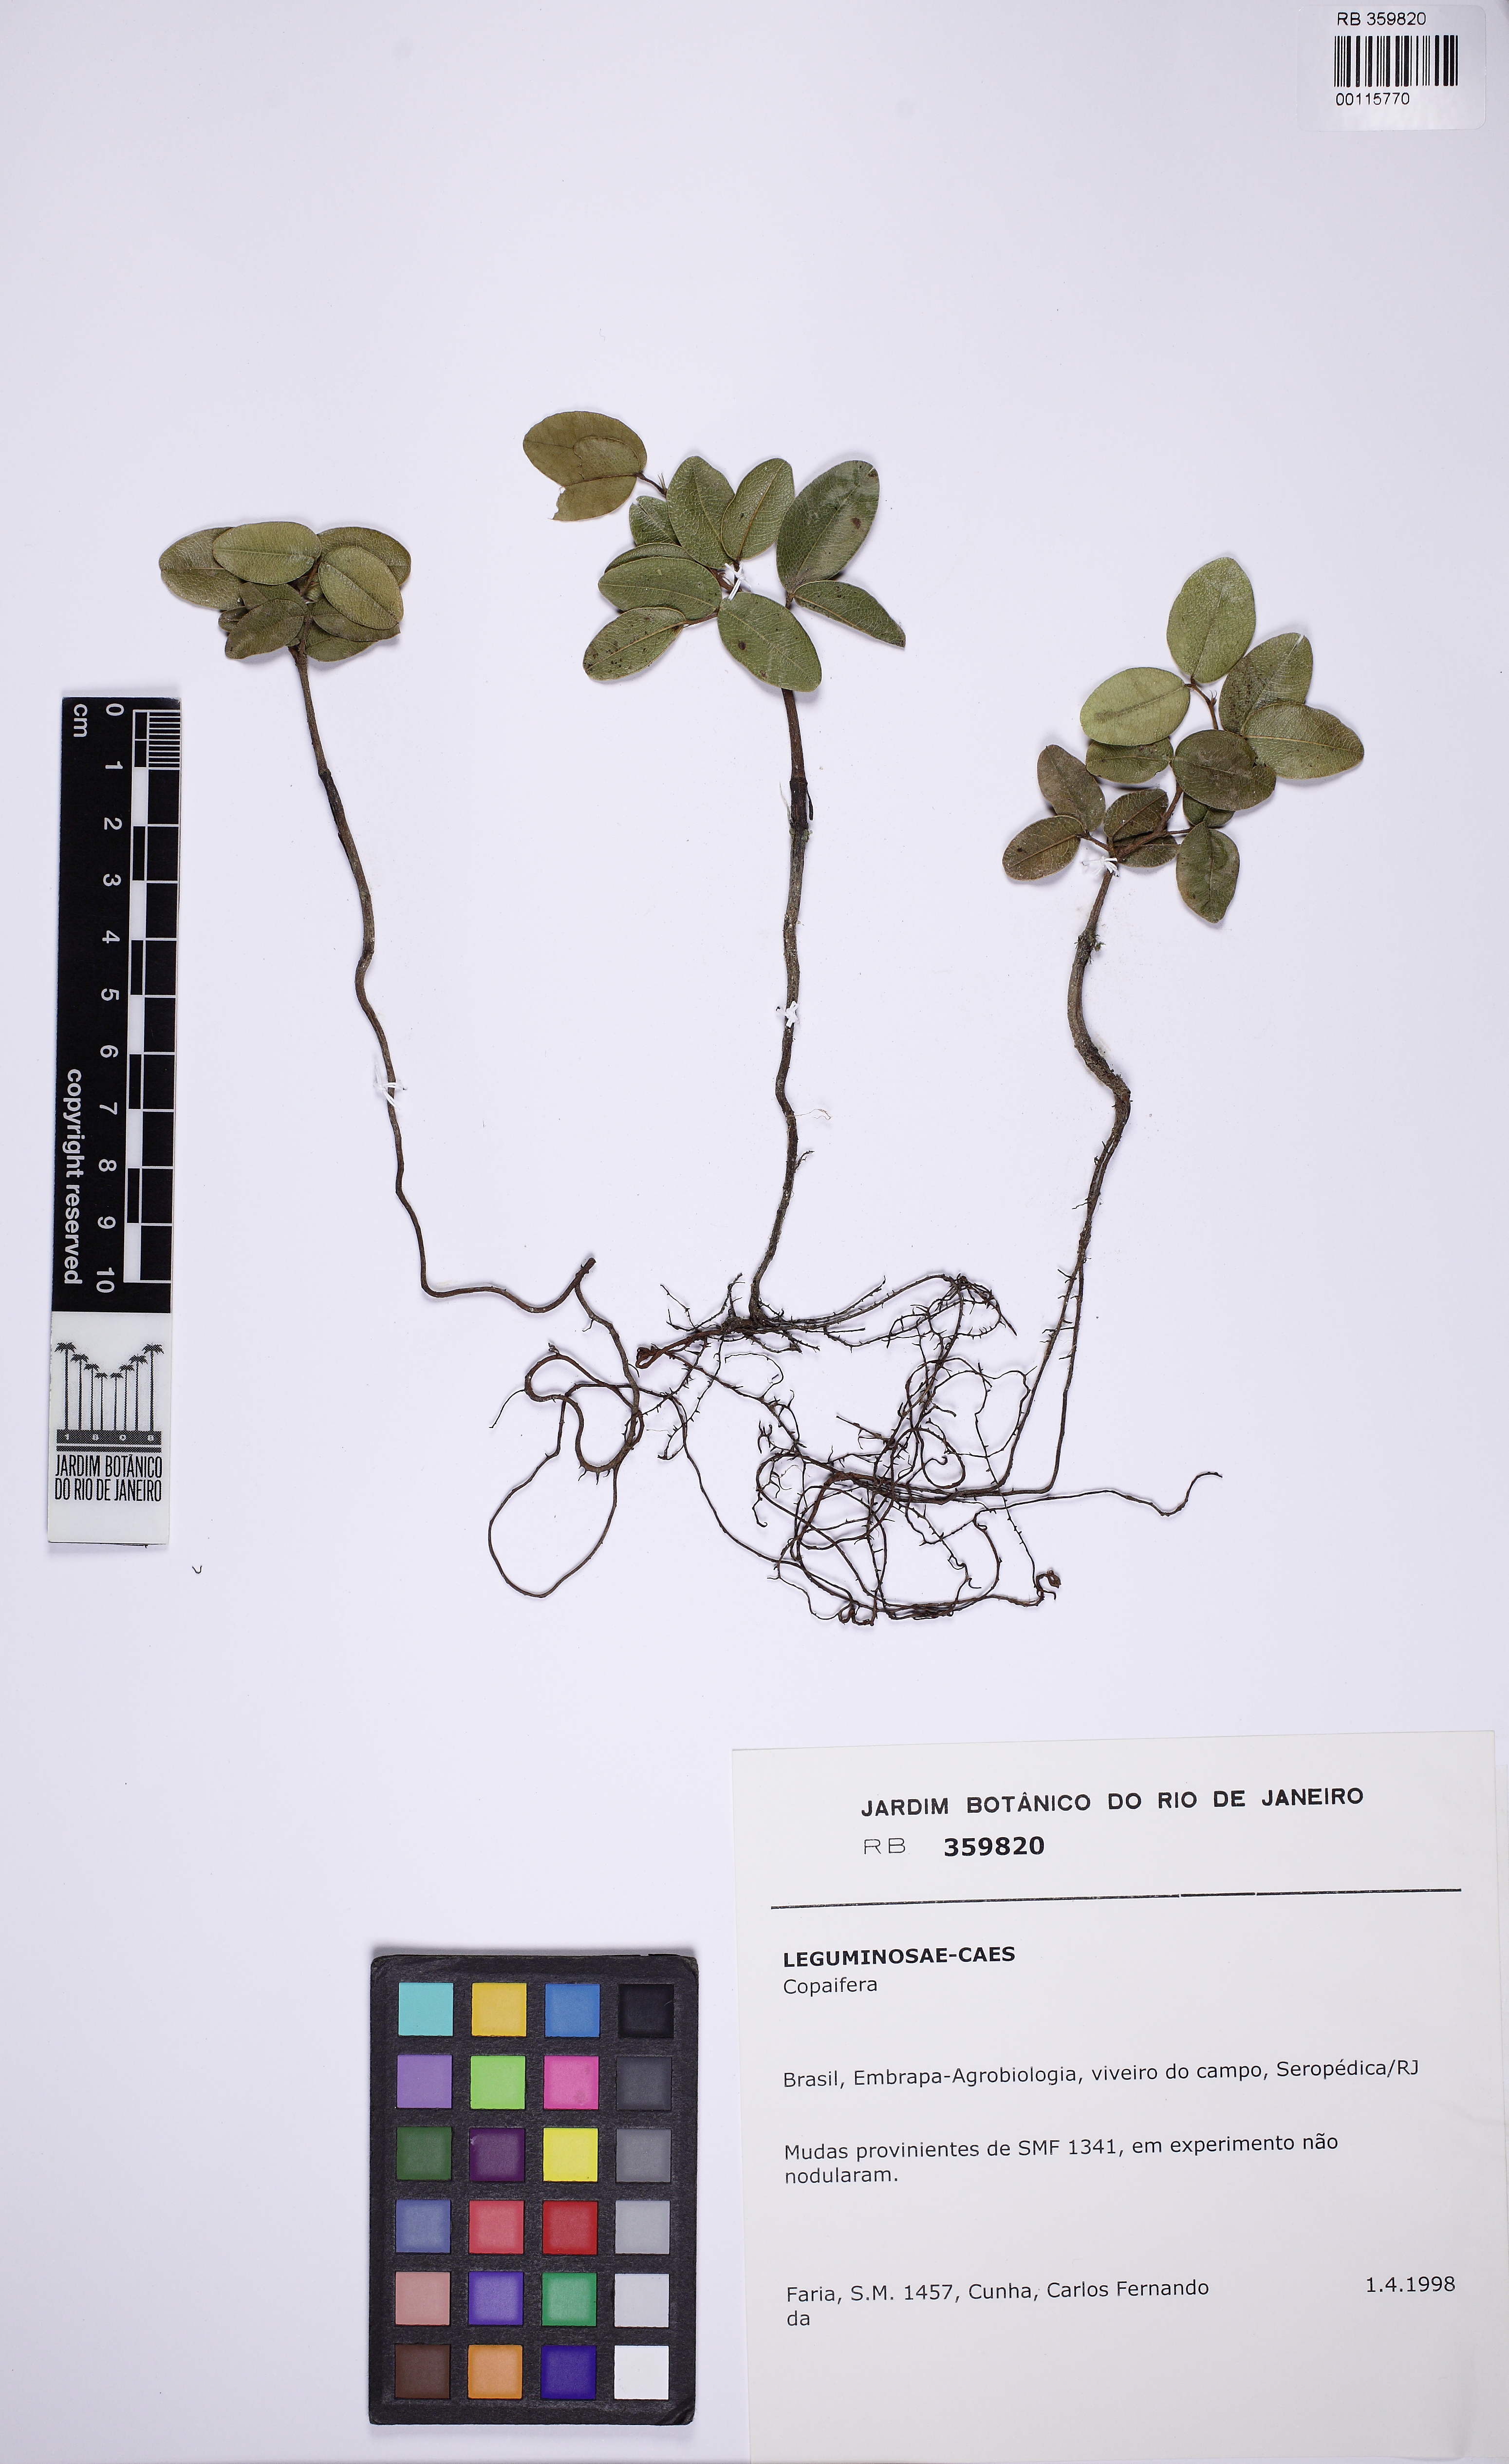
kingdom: Plantae
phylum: Tracheophyta
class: Magnoliopsida
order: Fabales
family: Fabaceae
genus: Copaifera
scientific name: Copaifera
